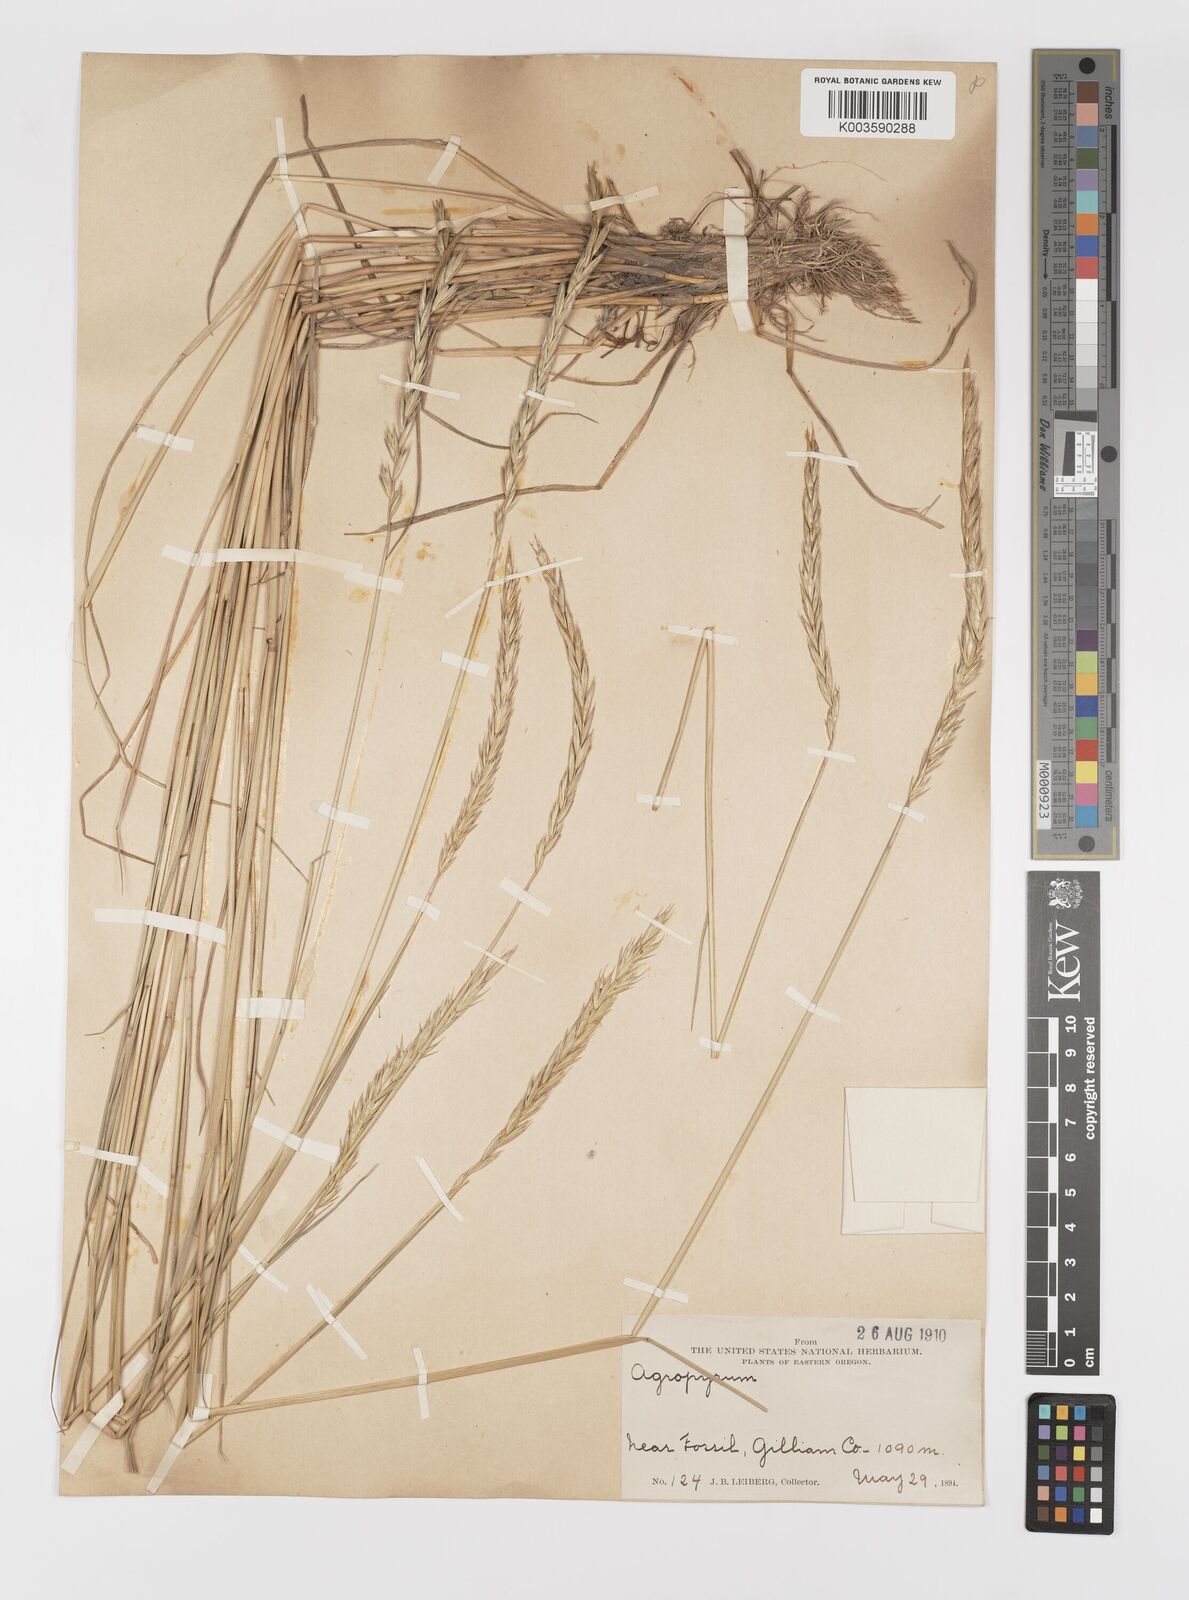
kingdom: Plantae
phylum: Tracheophyta
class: Liliopsida
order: Poales
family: Poaceae
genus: Elymus
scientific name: Elymus
